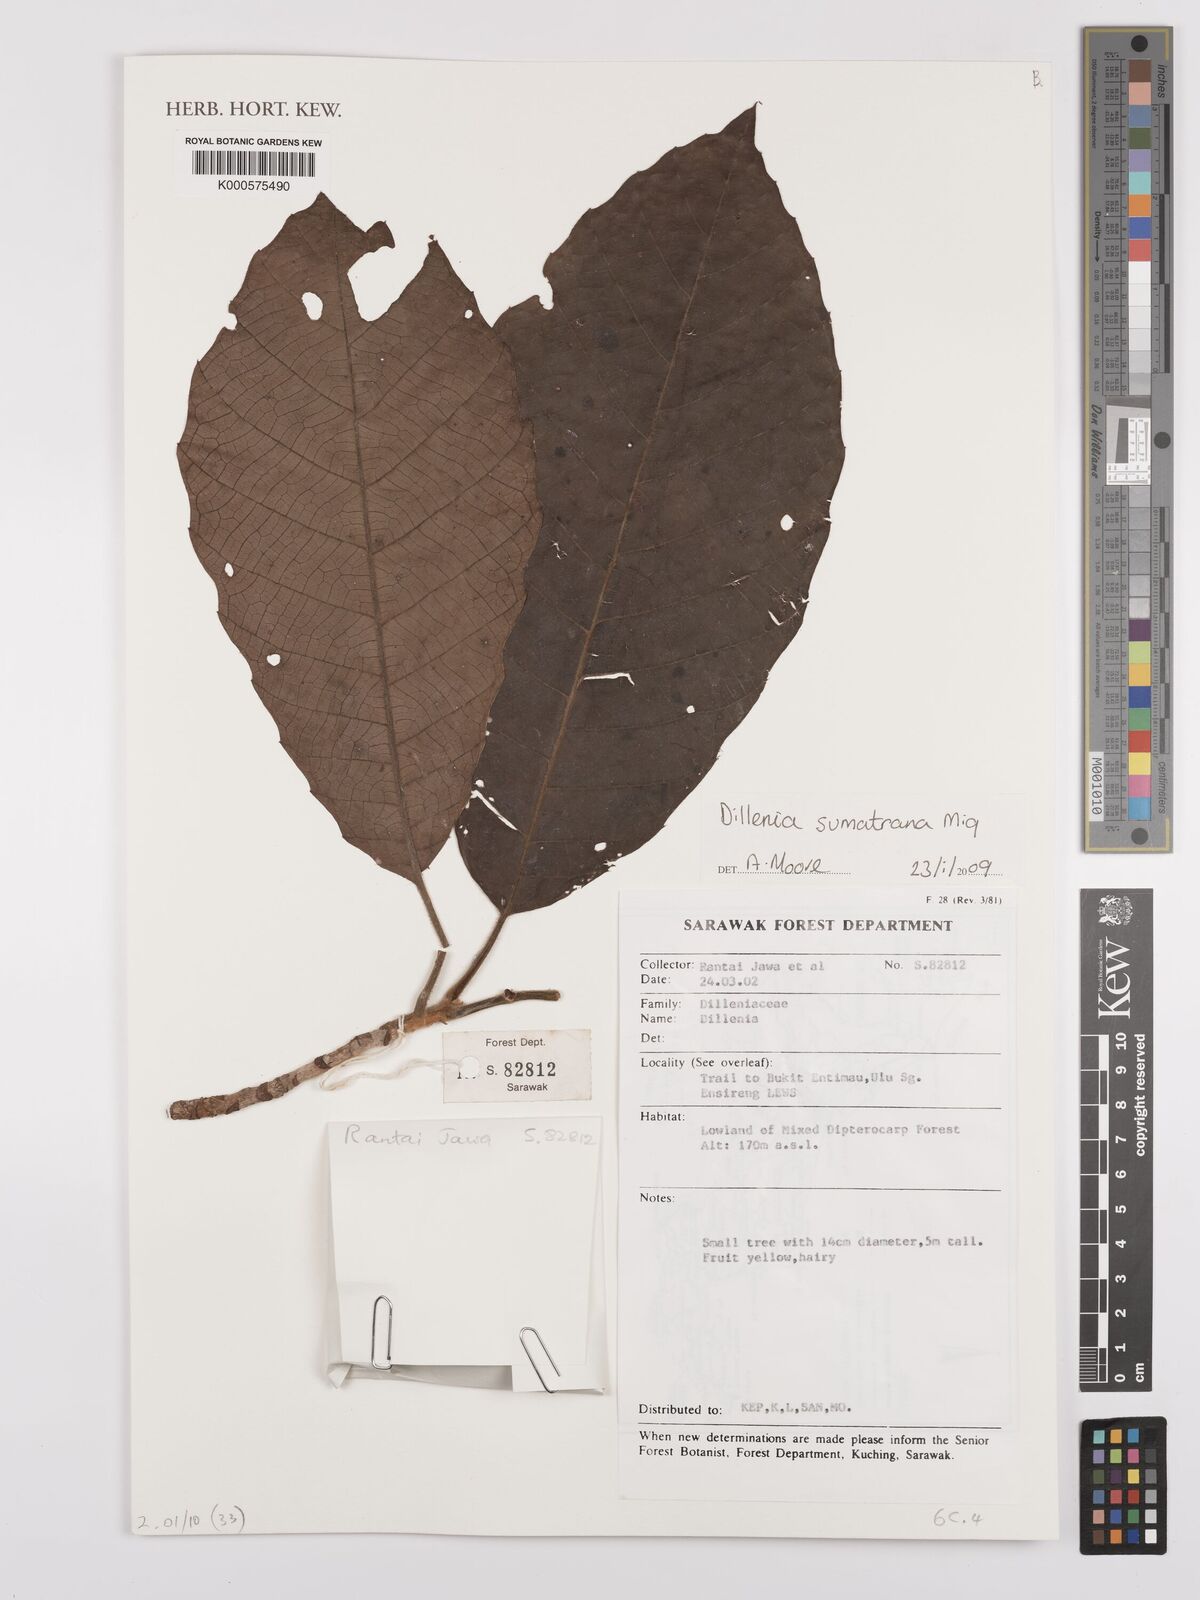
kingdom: Plantae
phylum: Tracheophyta
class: Magnoliopsida
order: Dilleniales
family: Dilleniaceae
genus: Dillenia
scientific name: Dillenia indica
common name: Elephant apple
